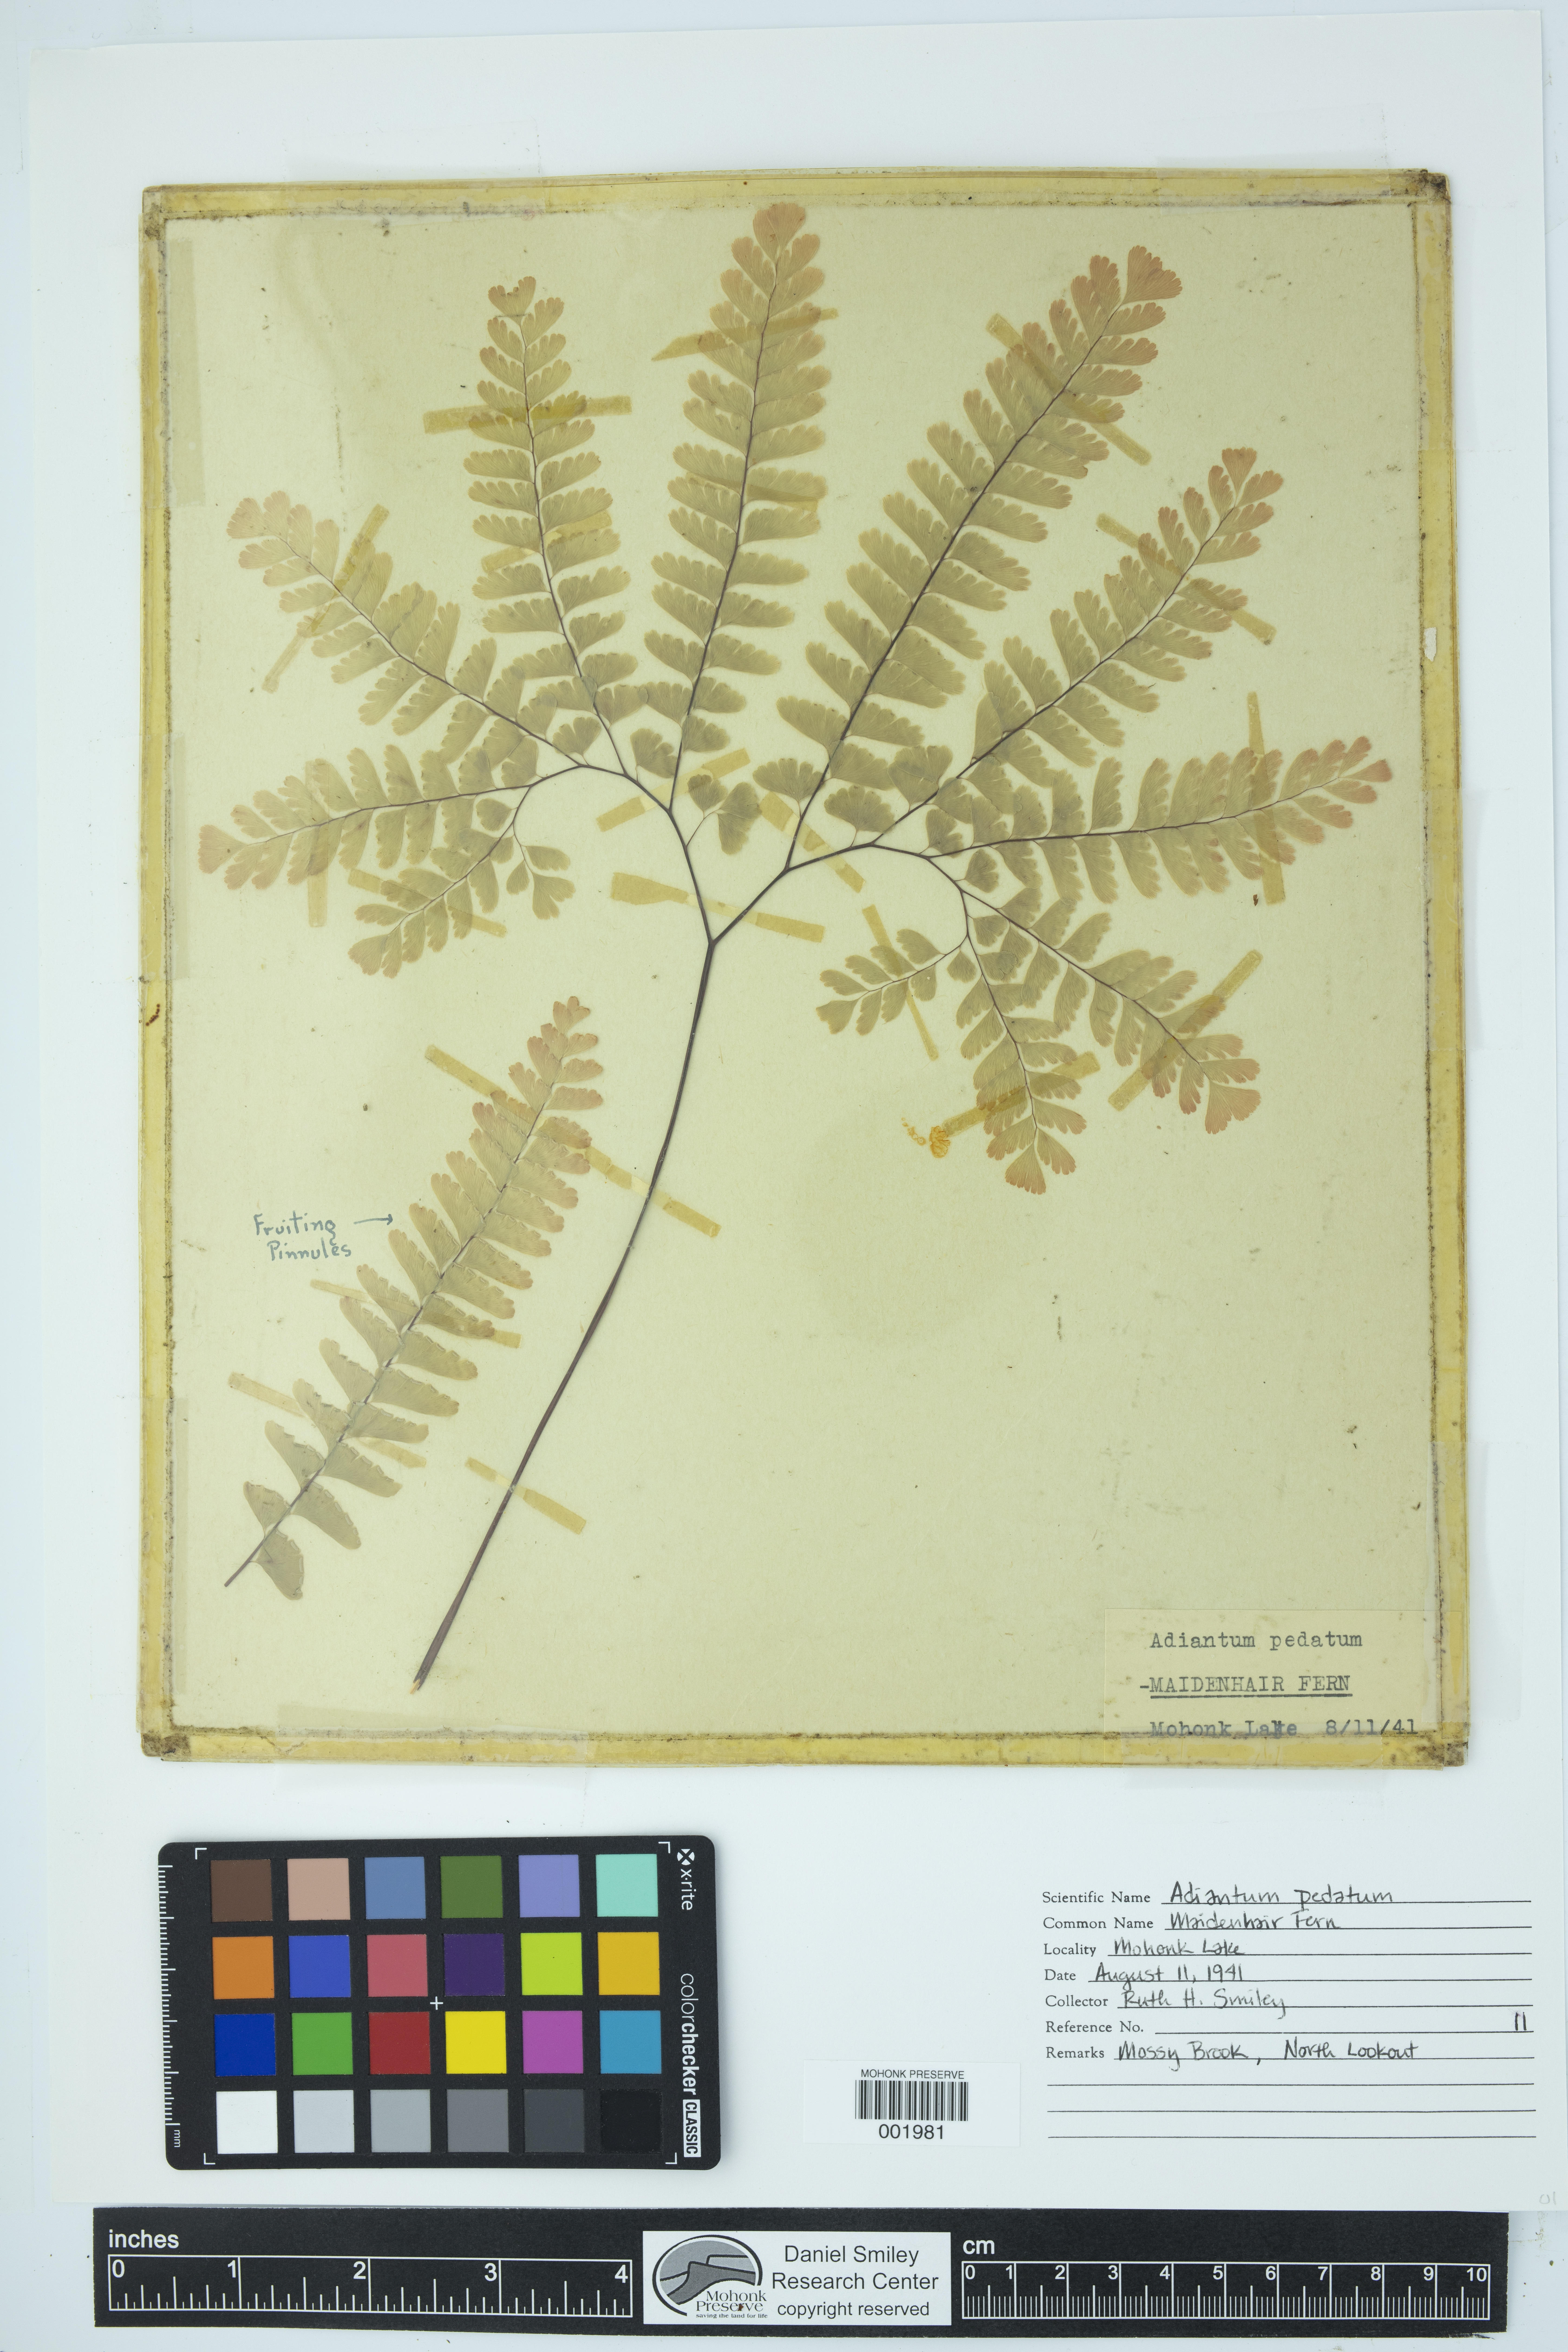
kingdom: Plantae
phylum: Tracheophyta
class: Polypodiopsida
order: Polypodiales
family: Pteridaceae
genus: Adiantum
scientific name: Adiantum pedatum
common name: Five-finger fern
